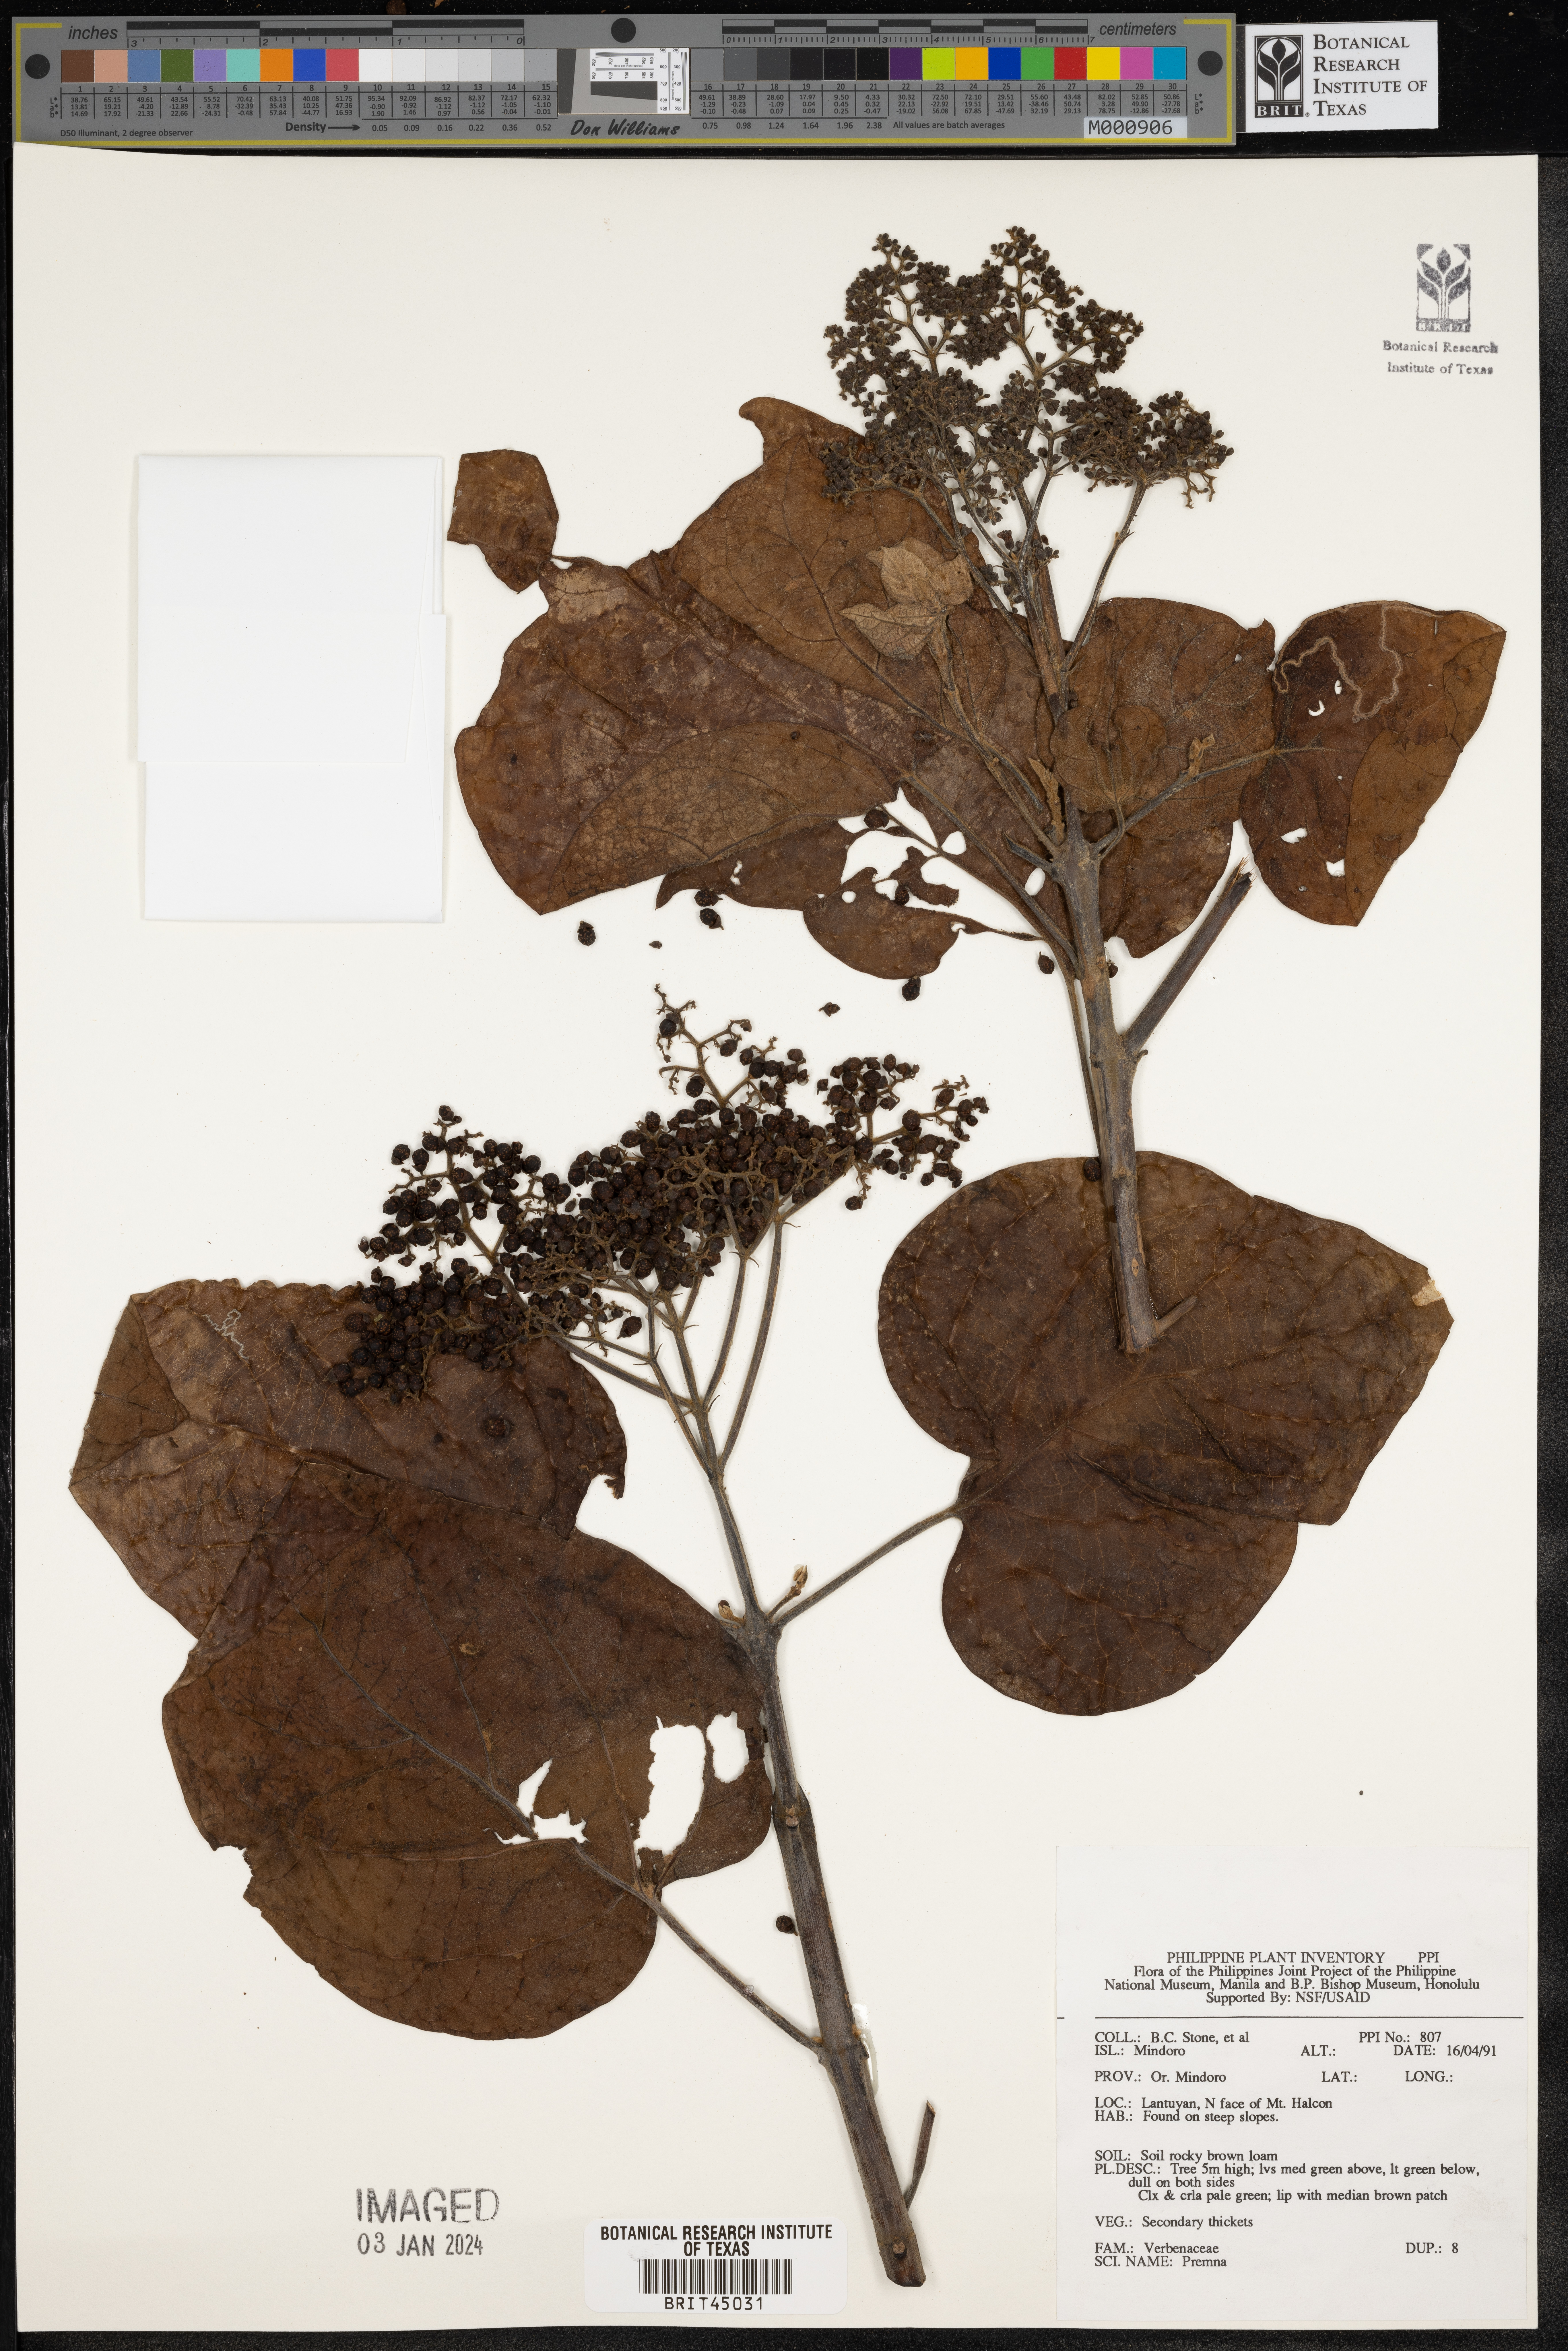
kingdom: Plantae
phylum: Tracheophyta
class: Magnoliopsida
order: Lamiales
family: Lamiaceae
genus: Premna
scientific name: Premna
